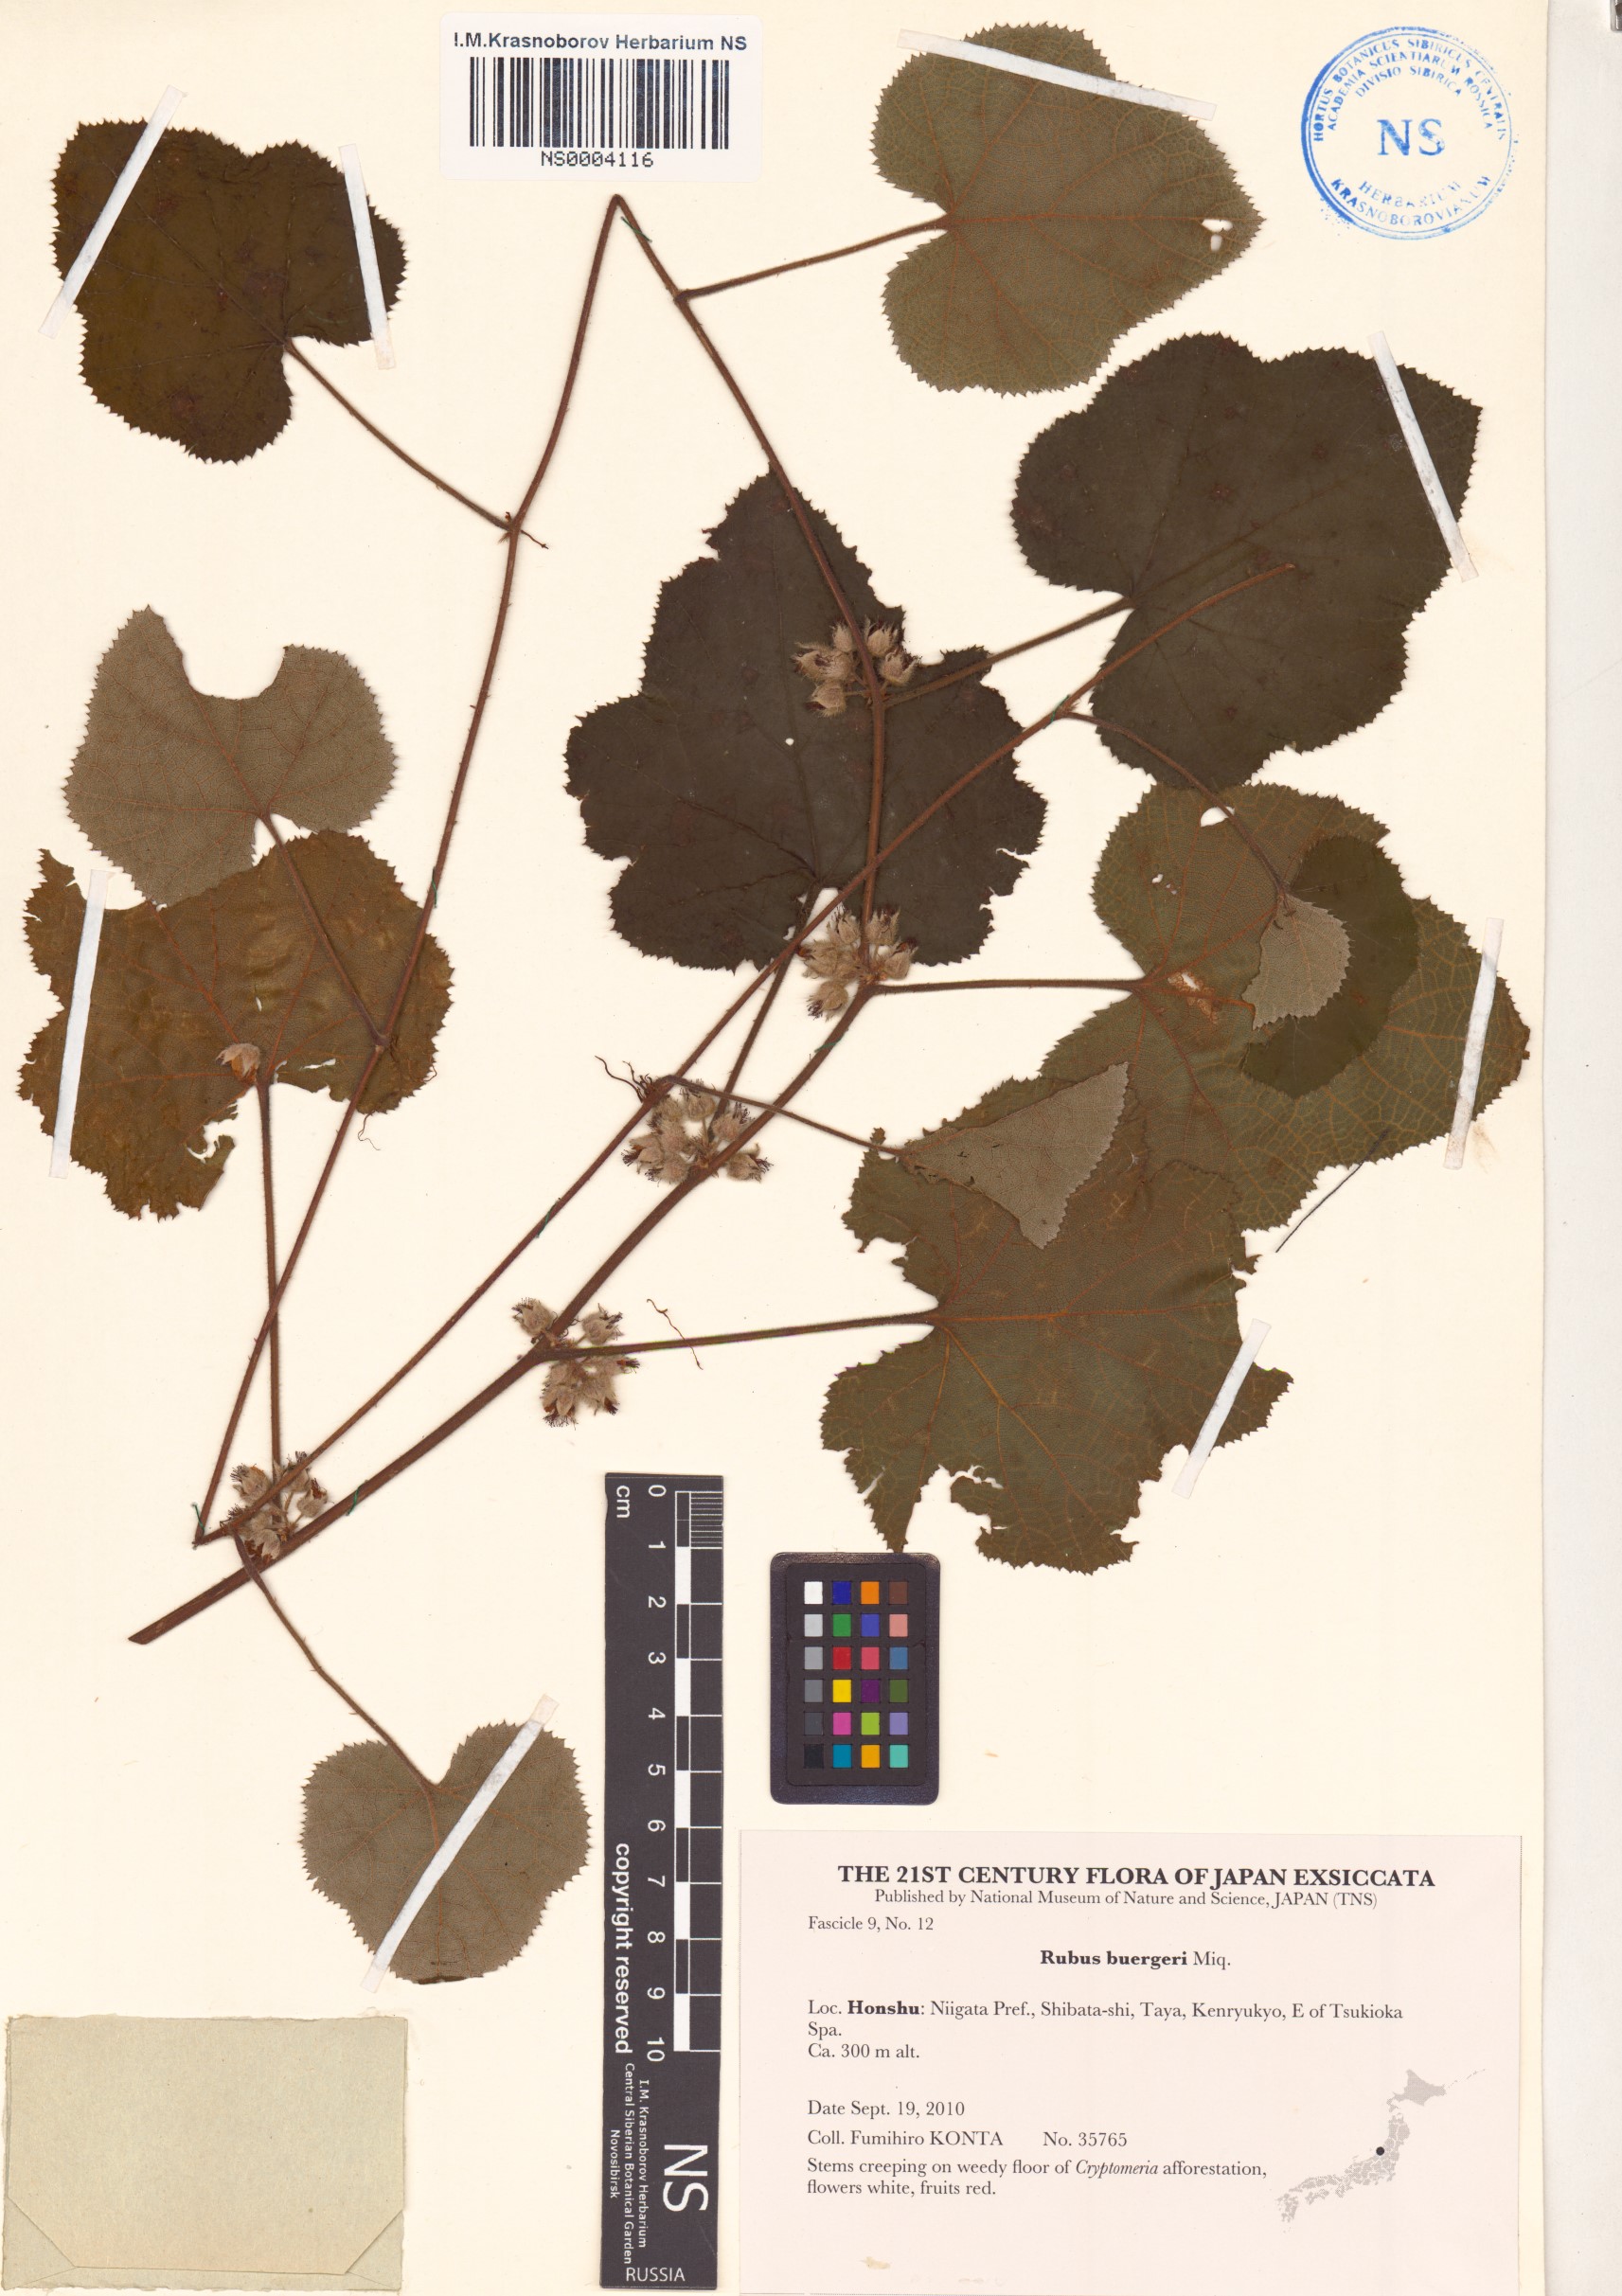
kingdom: Plantae
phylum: Tracheophyta
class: Magnoliopsida
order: Rosales
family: Rosaceae
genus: Rubus
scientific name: Rubus buergeri
